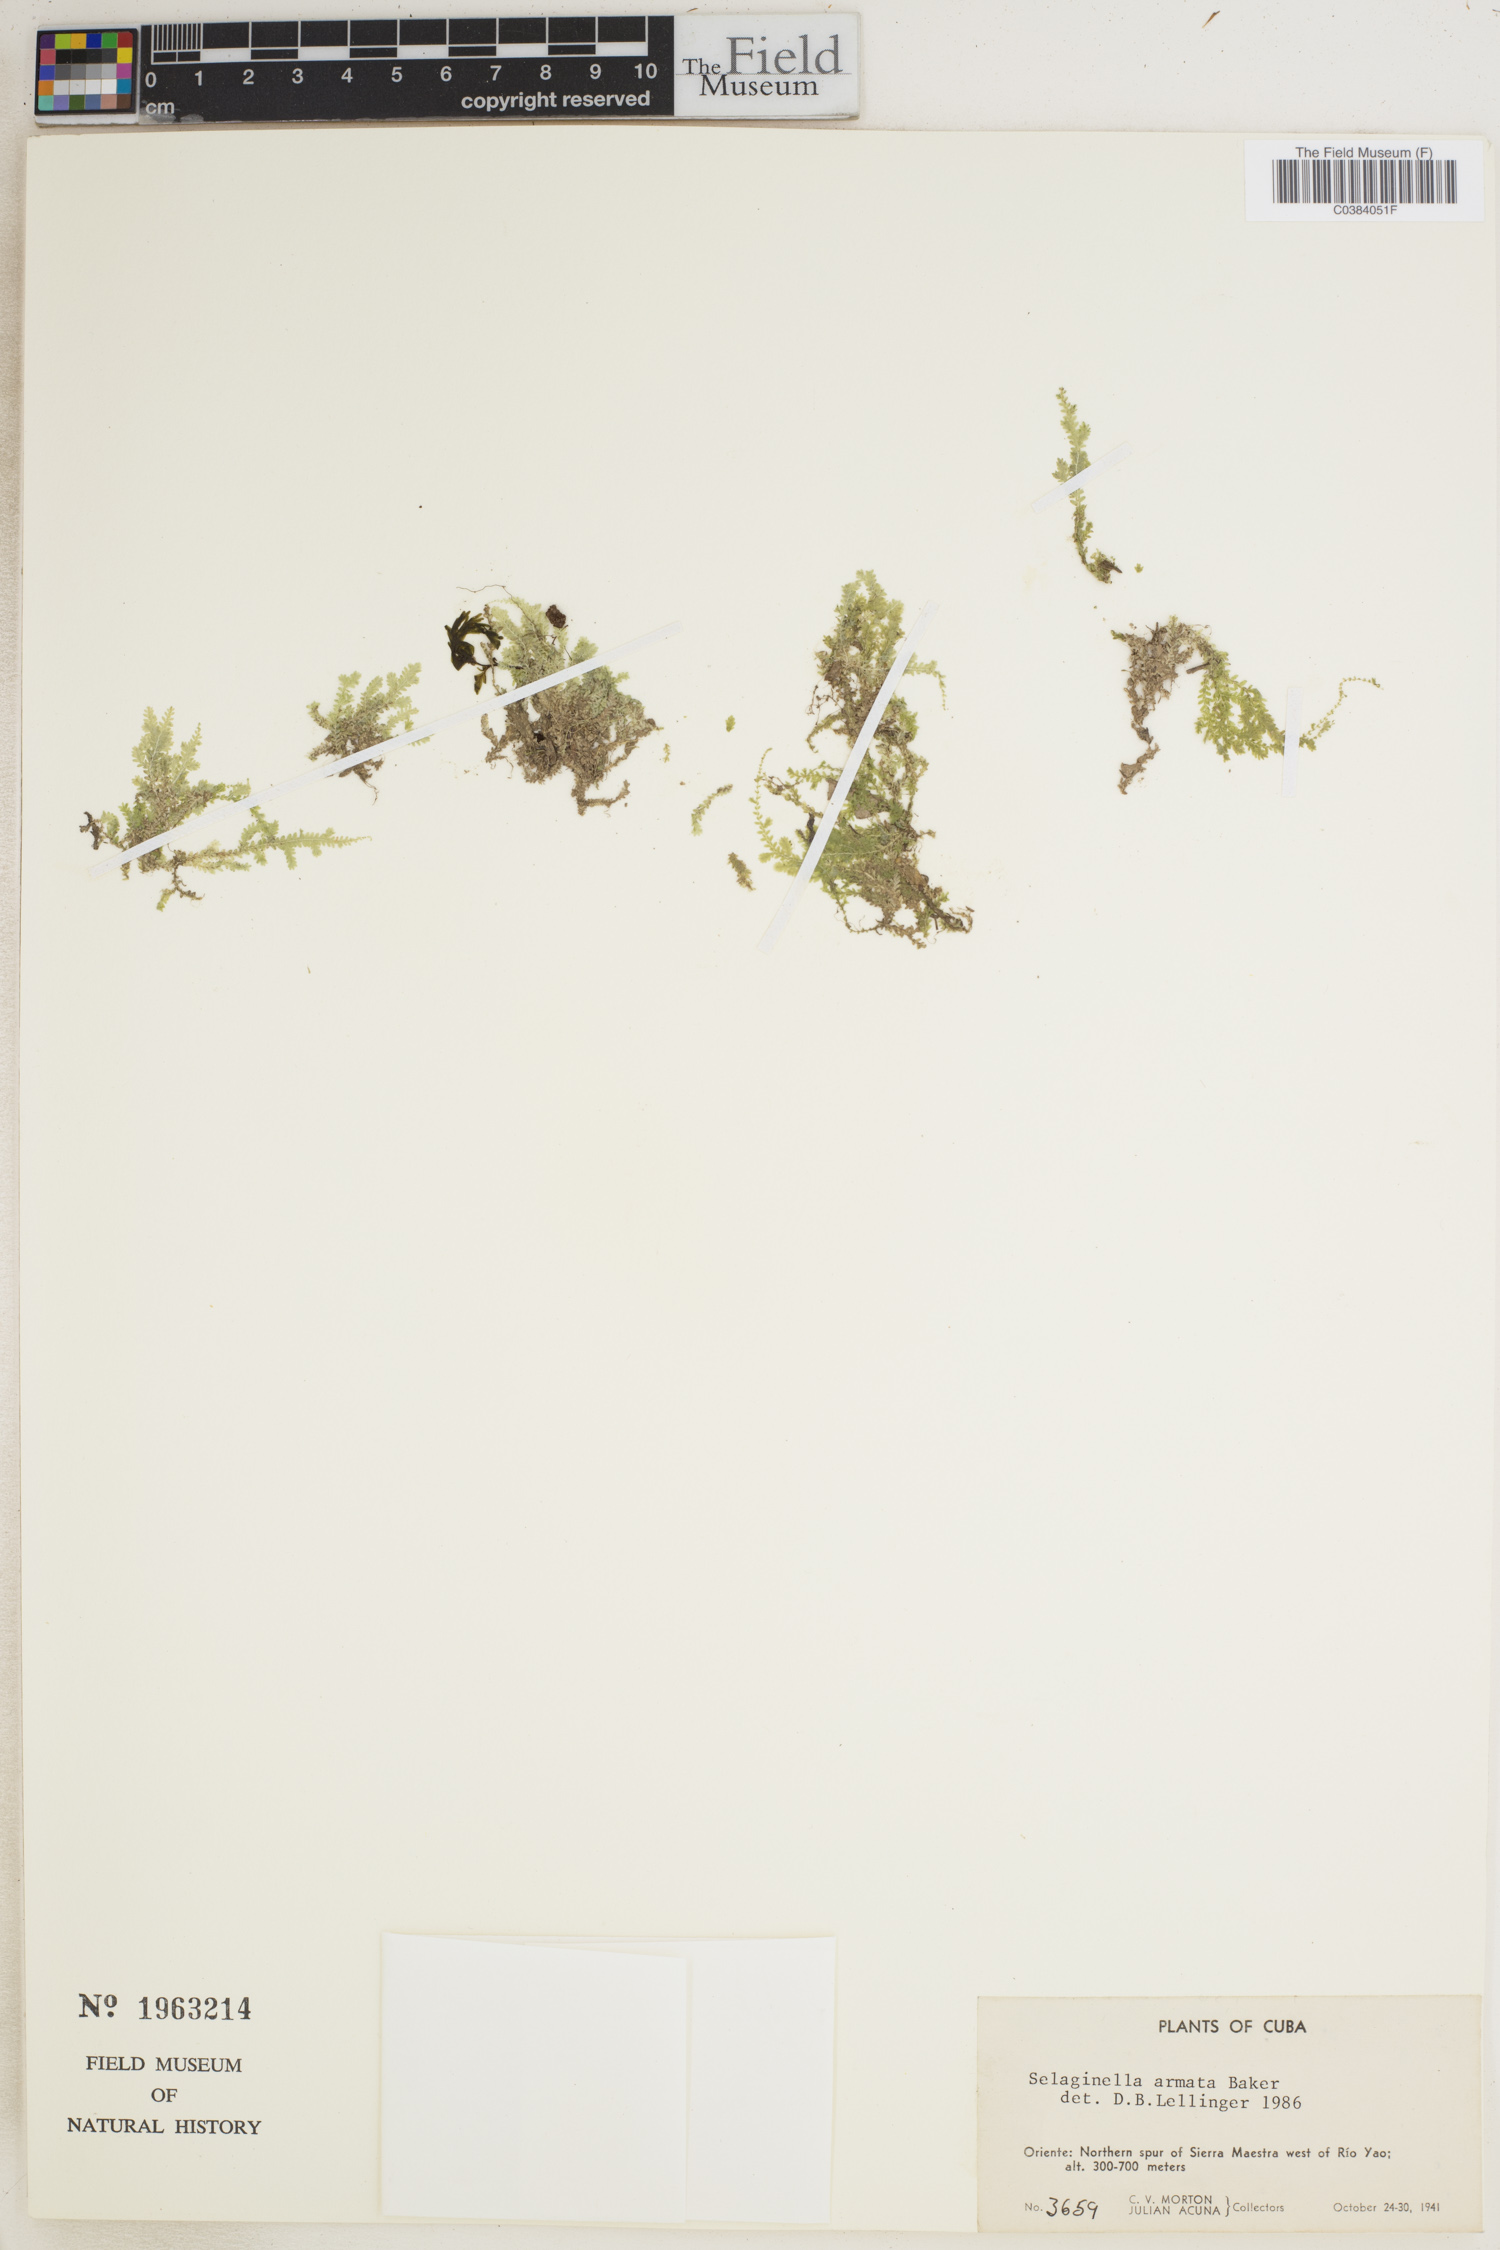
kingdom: Plantae
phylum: Tracheophyta
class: Lycopodiopsida
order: Selaginellales
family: Selaginellaceae
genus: Selaginella
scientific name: Selaginella armata
